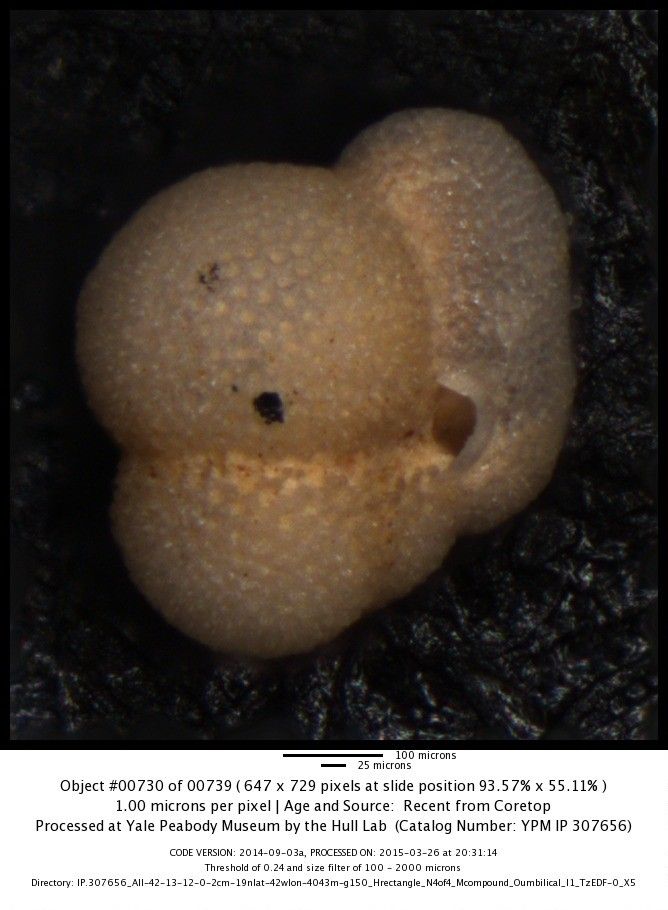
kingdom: Chromista
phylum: Foraminifera
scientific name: Foraminifera
